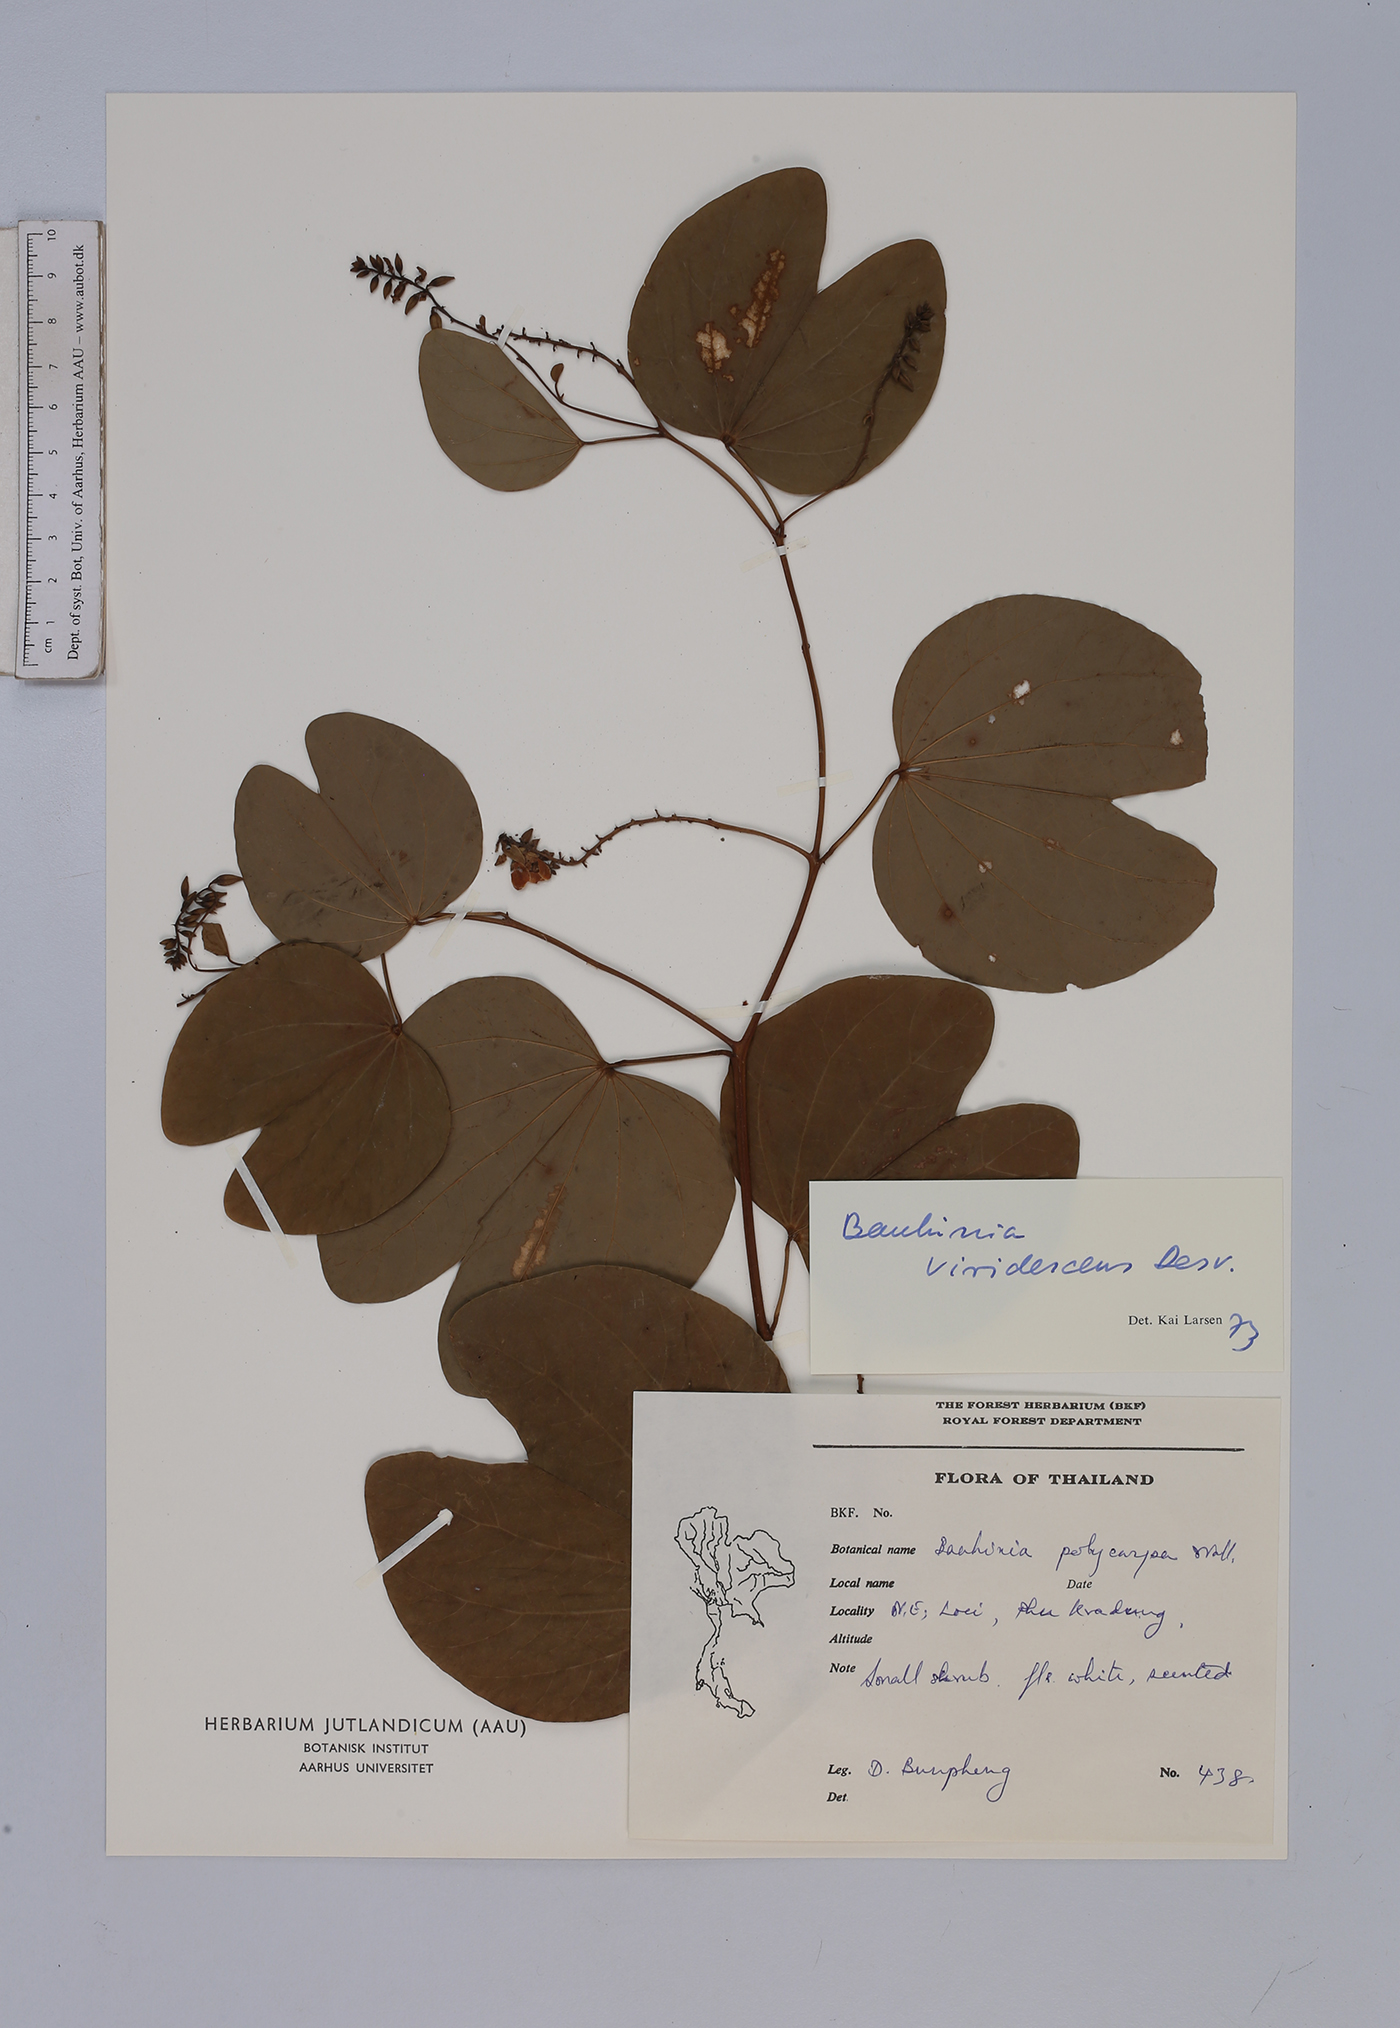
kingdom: Plantae
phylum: Tracheophyta
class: Magnoliopsida
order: Fabales
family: Fabaceae
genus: Bauhinia
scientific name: Bauhinia viridescens
